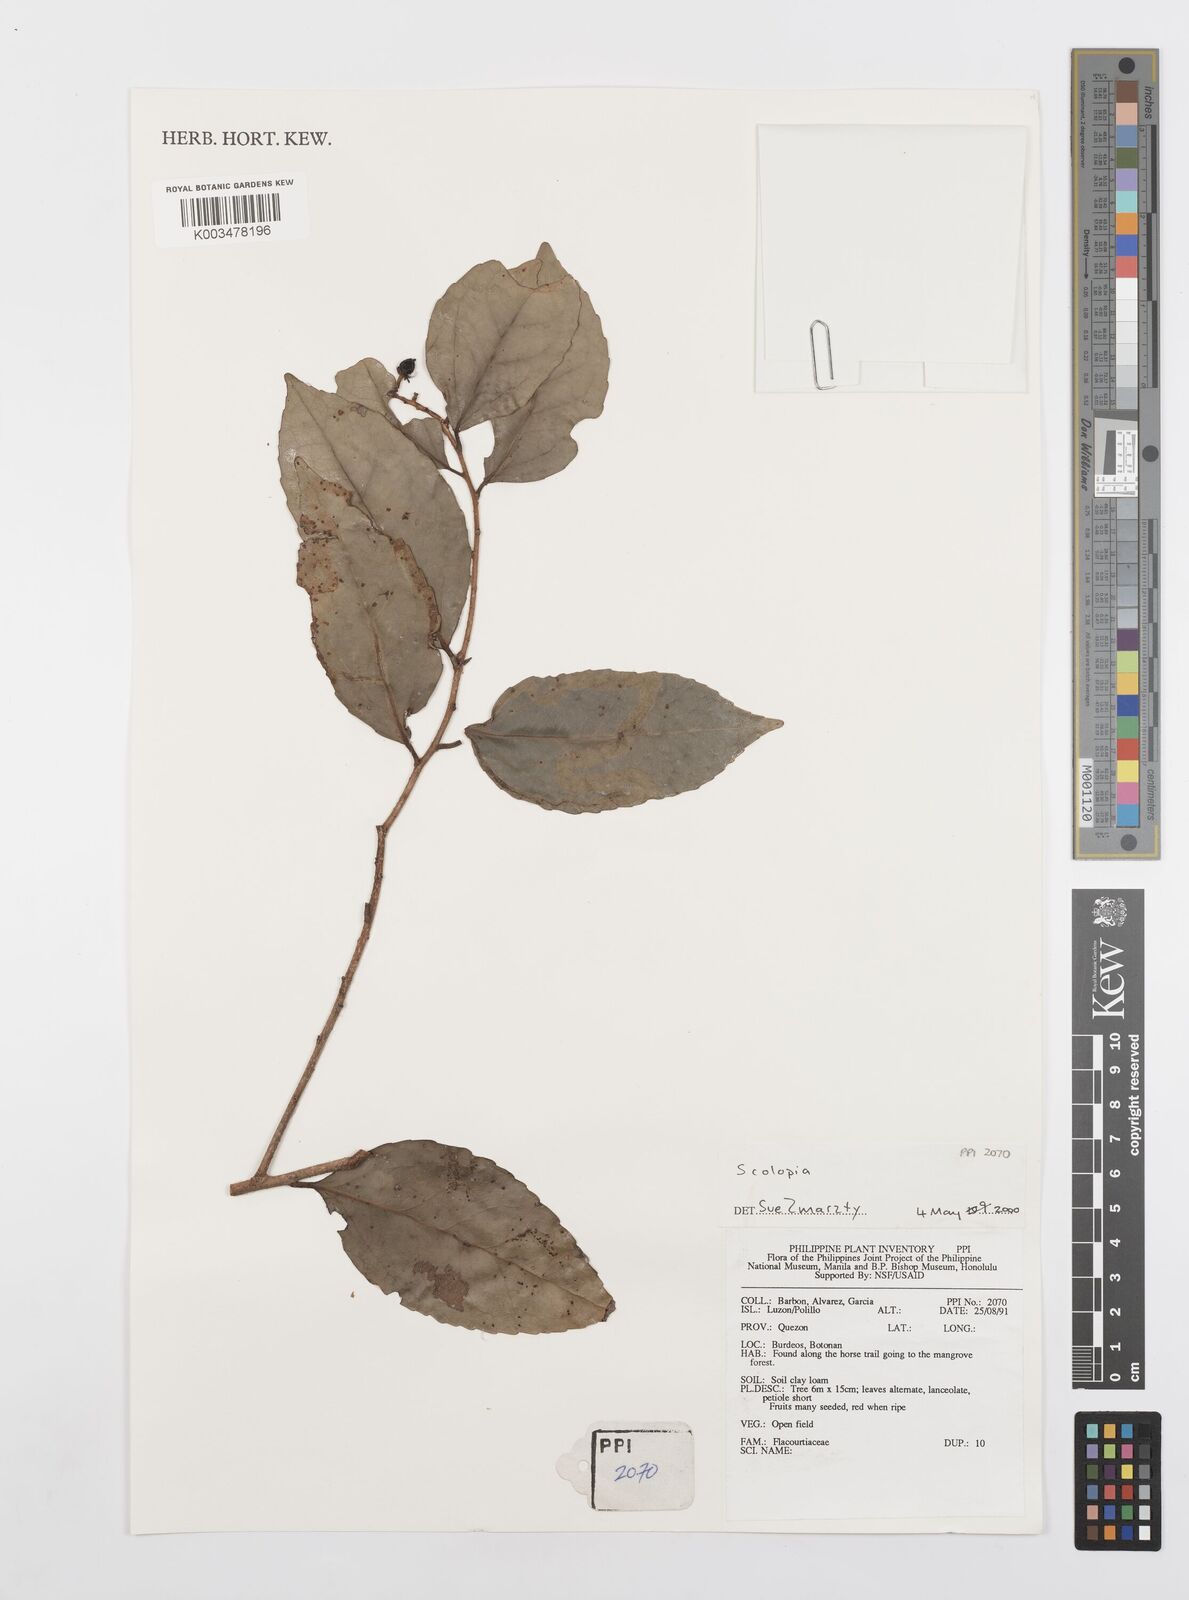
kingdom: Plantae
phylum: Tracheophyta
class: Magnoliopsida
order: Malpighiales
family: Salicaceae
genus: Scolopia
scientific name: Scolopia
